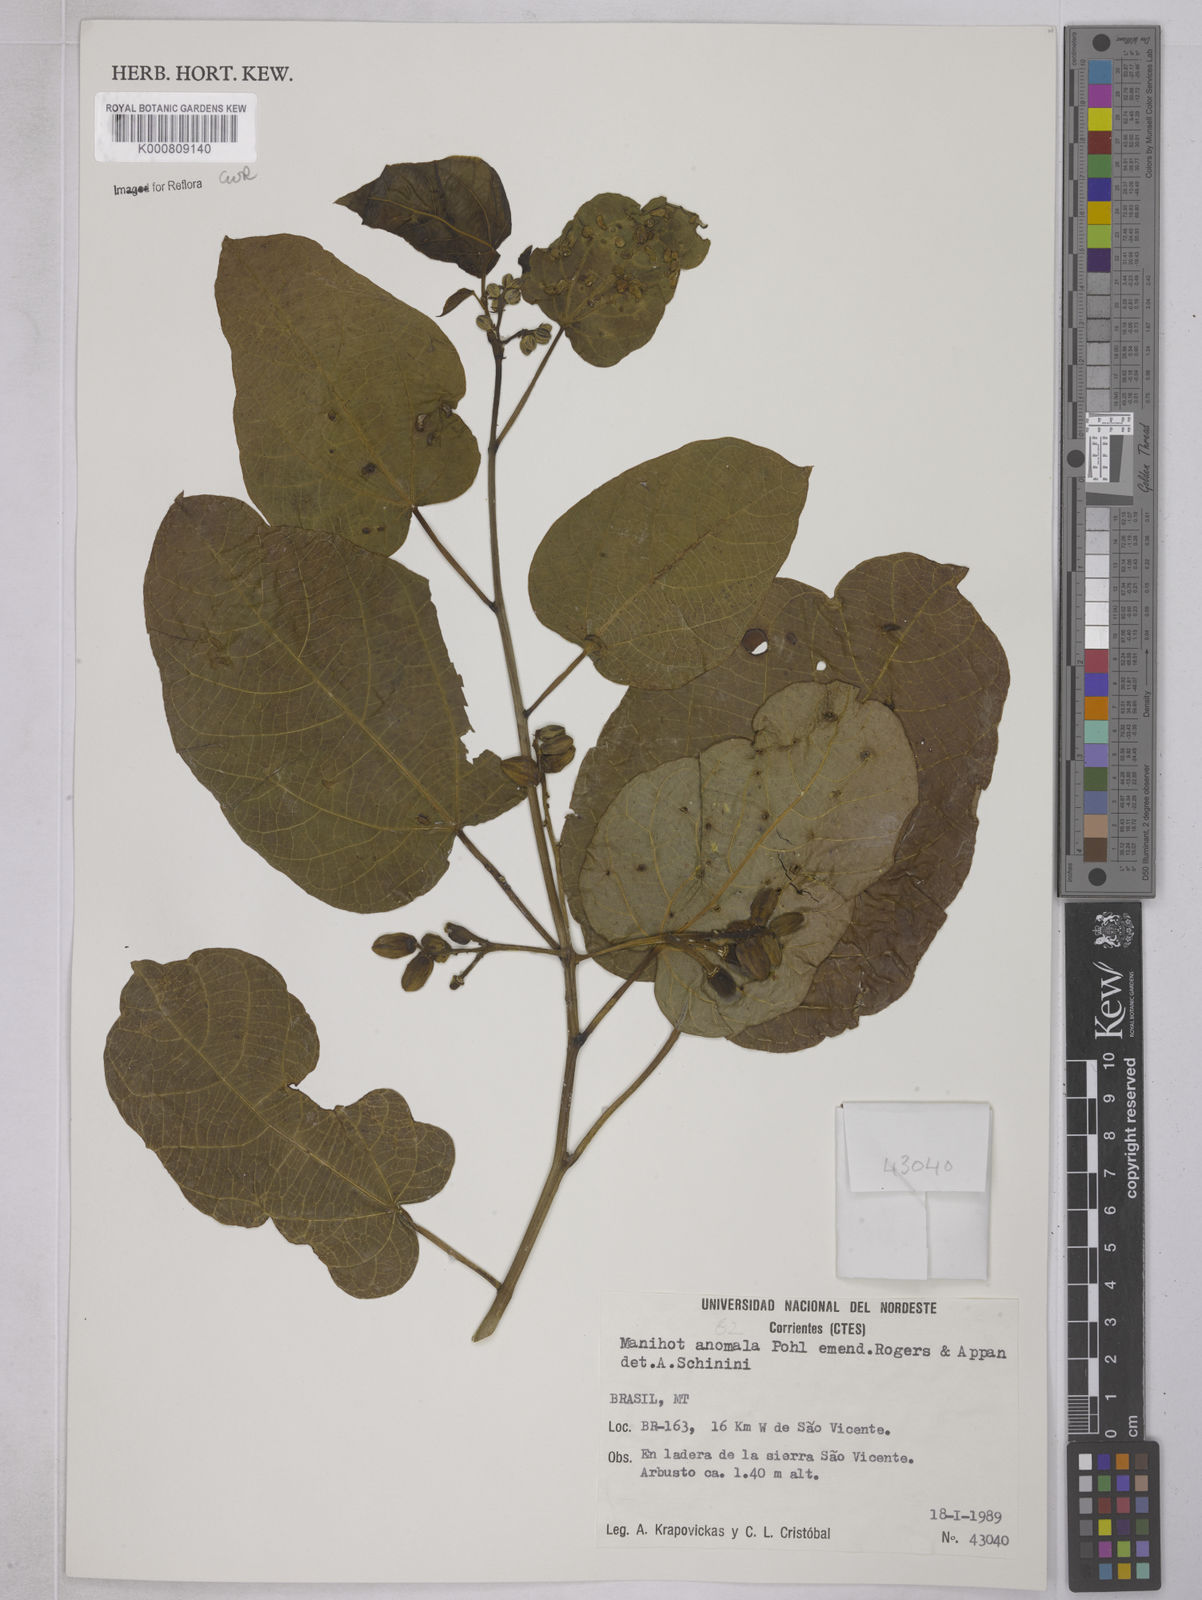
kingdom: Plantae
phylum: Tracheophyta
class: Magnoliopsida
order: Malpighiales
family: Euphorbiaceae
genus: Manihot
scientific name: Manihot anomala
